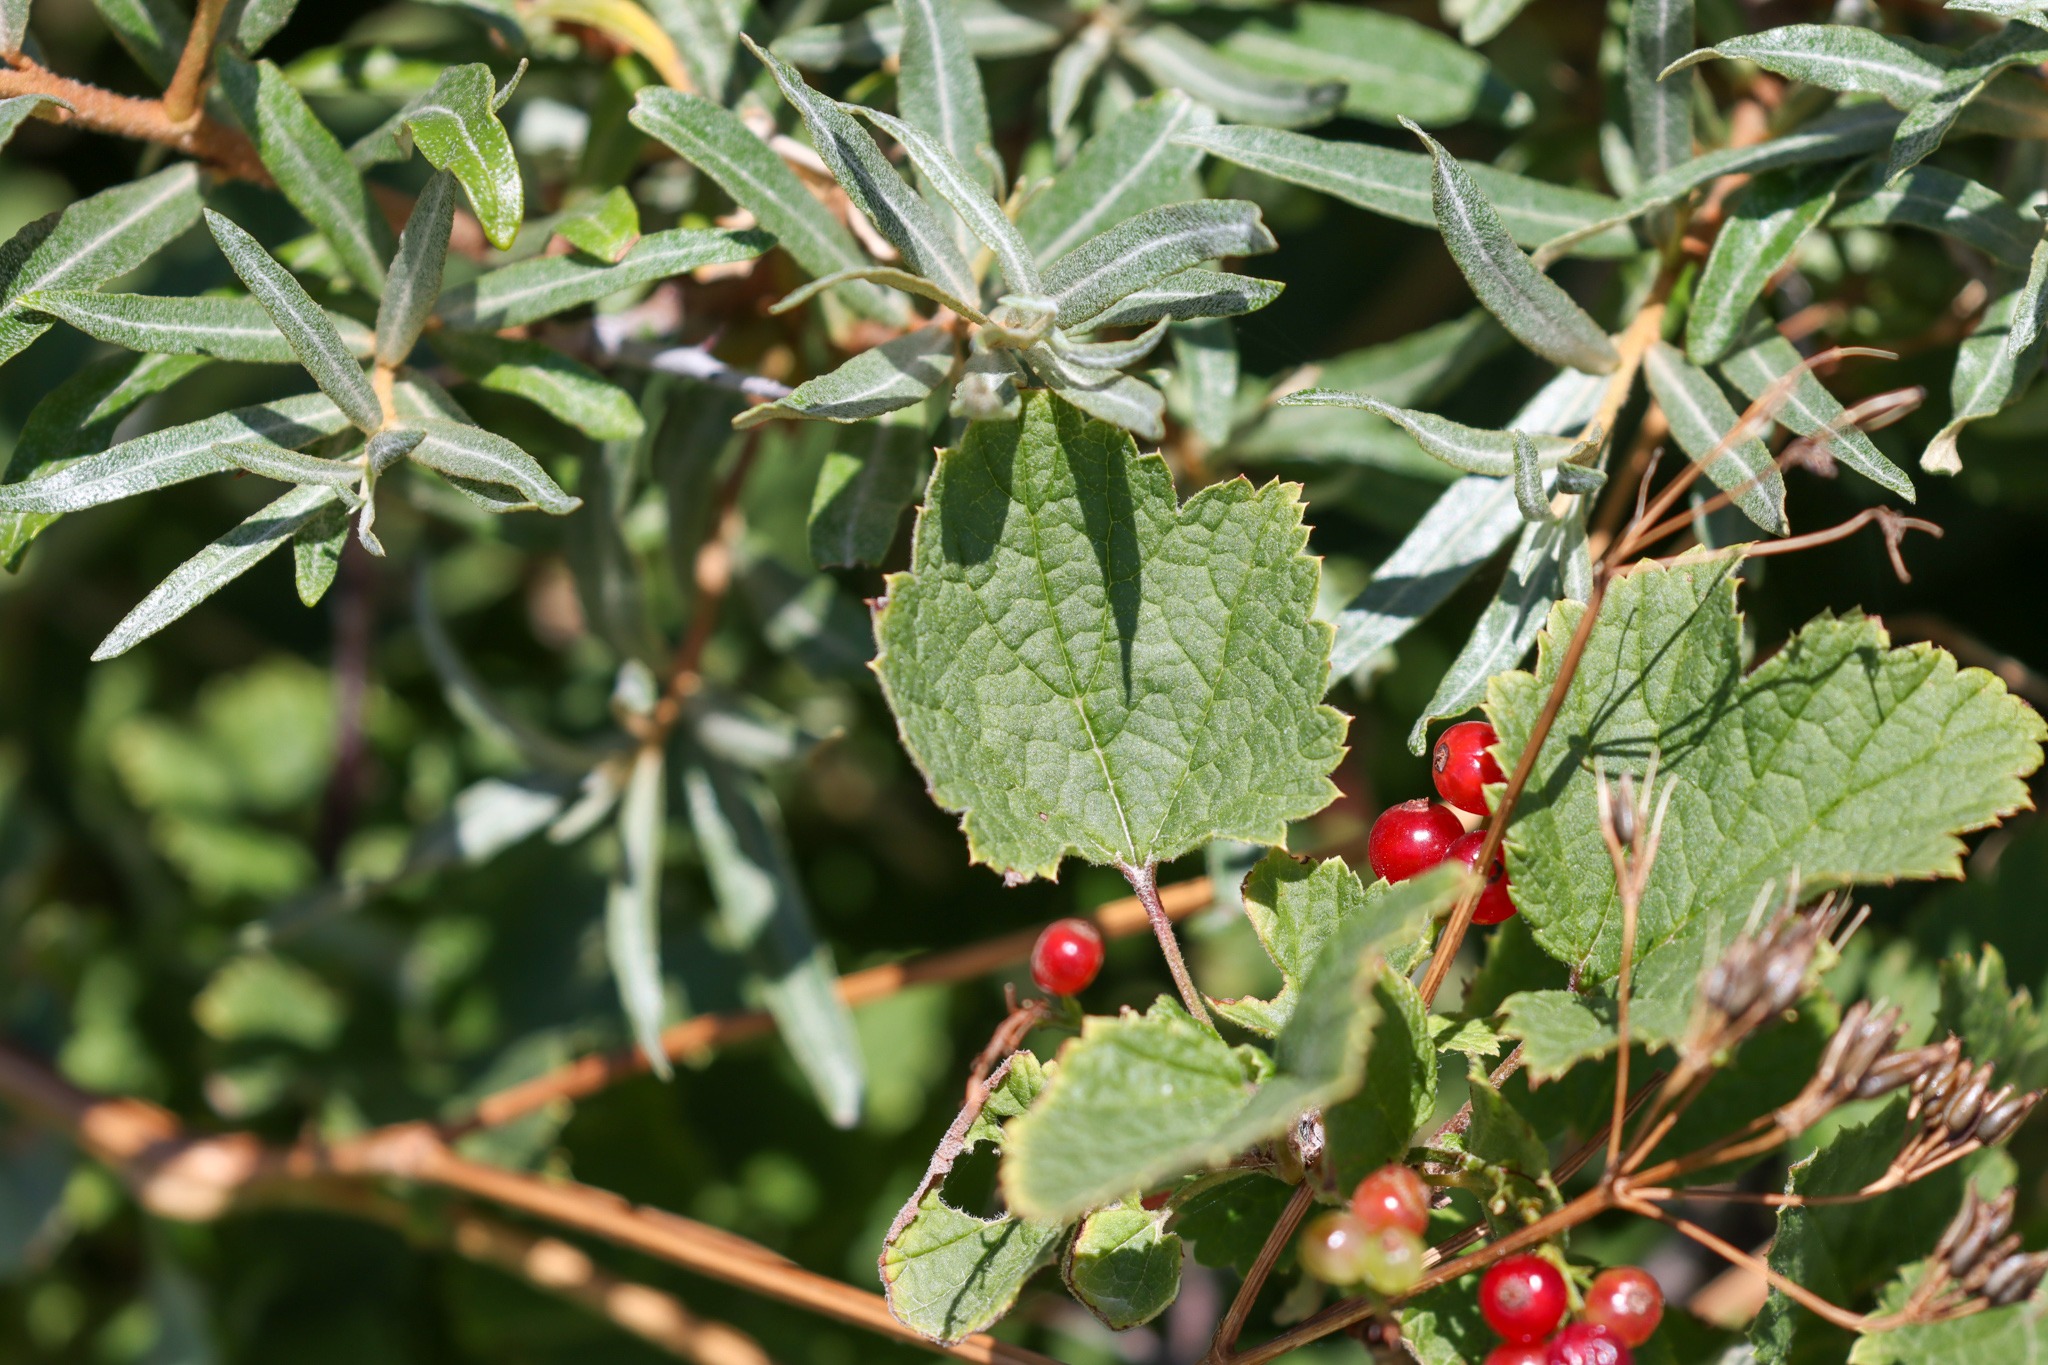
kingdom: Plantae
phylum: Tracheophyta
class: Magnoliopsida
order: Saxifragales
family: Grossulariaceae
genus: Ribes
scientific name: Ribes
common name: Ribsslægten
